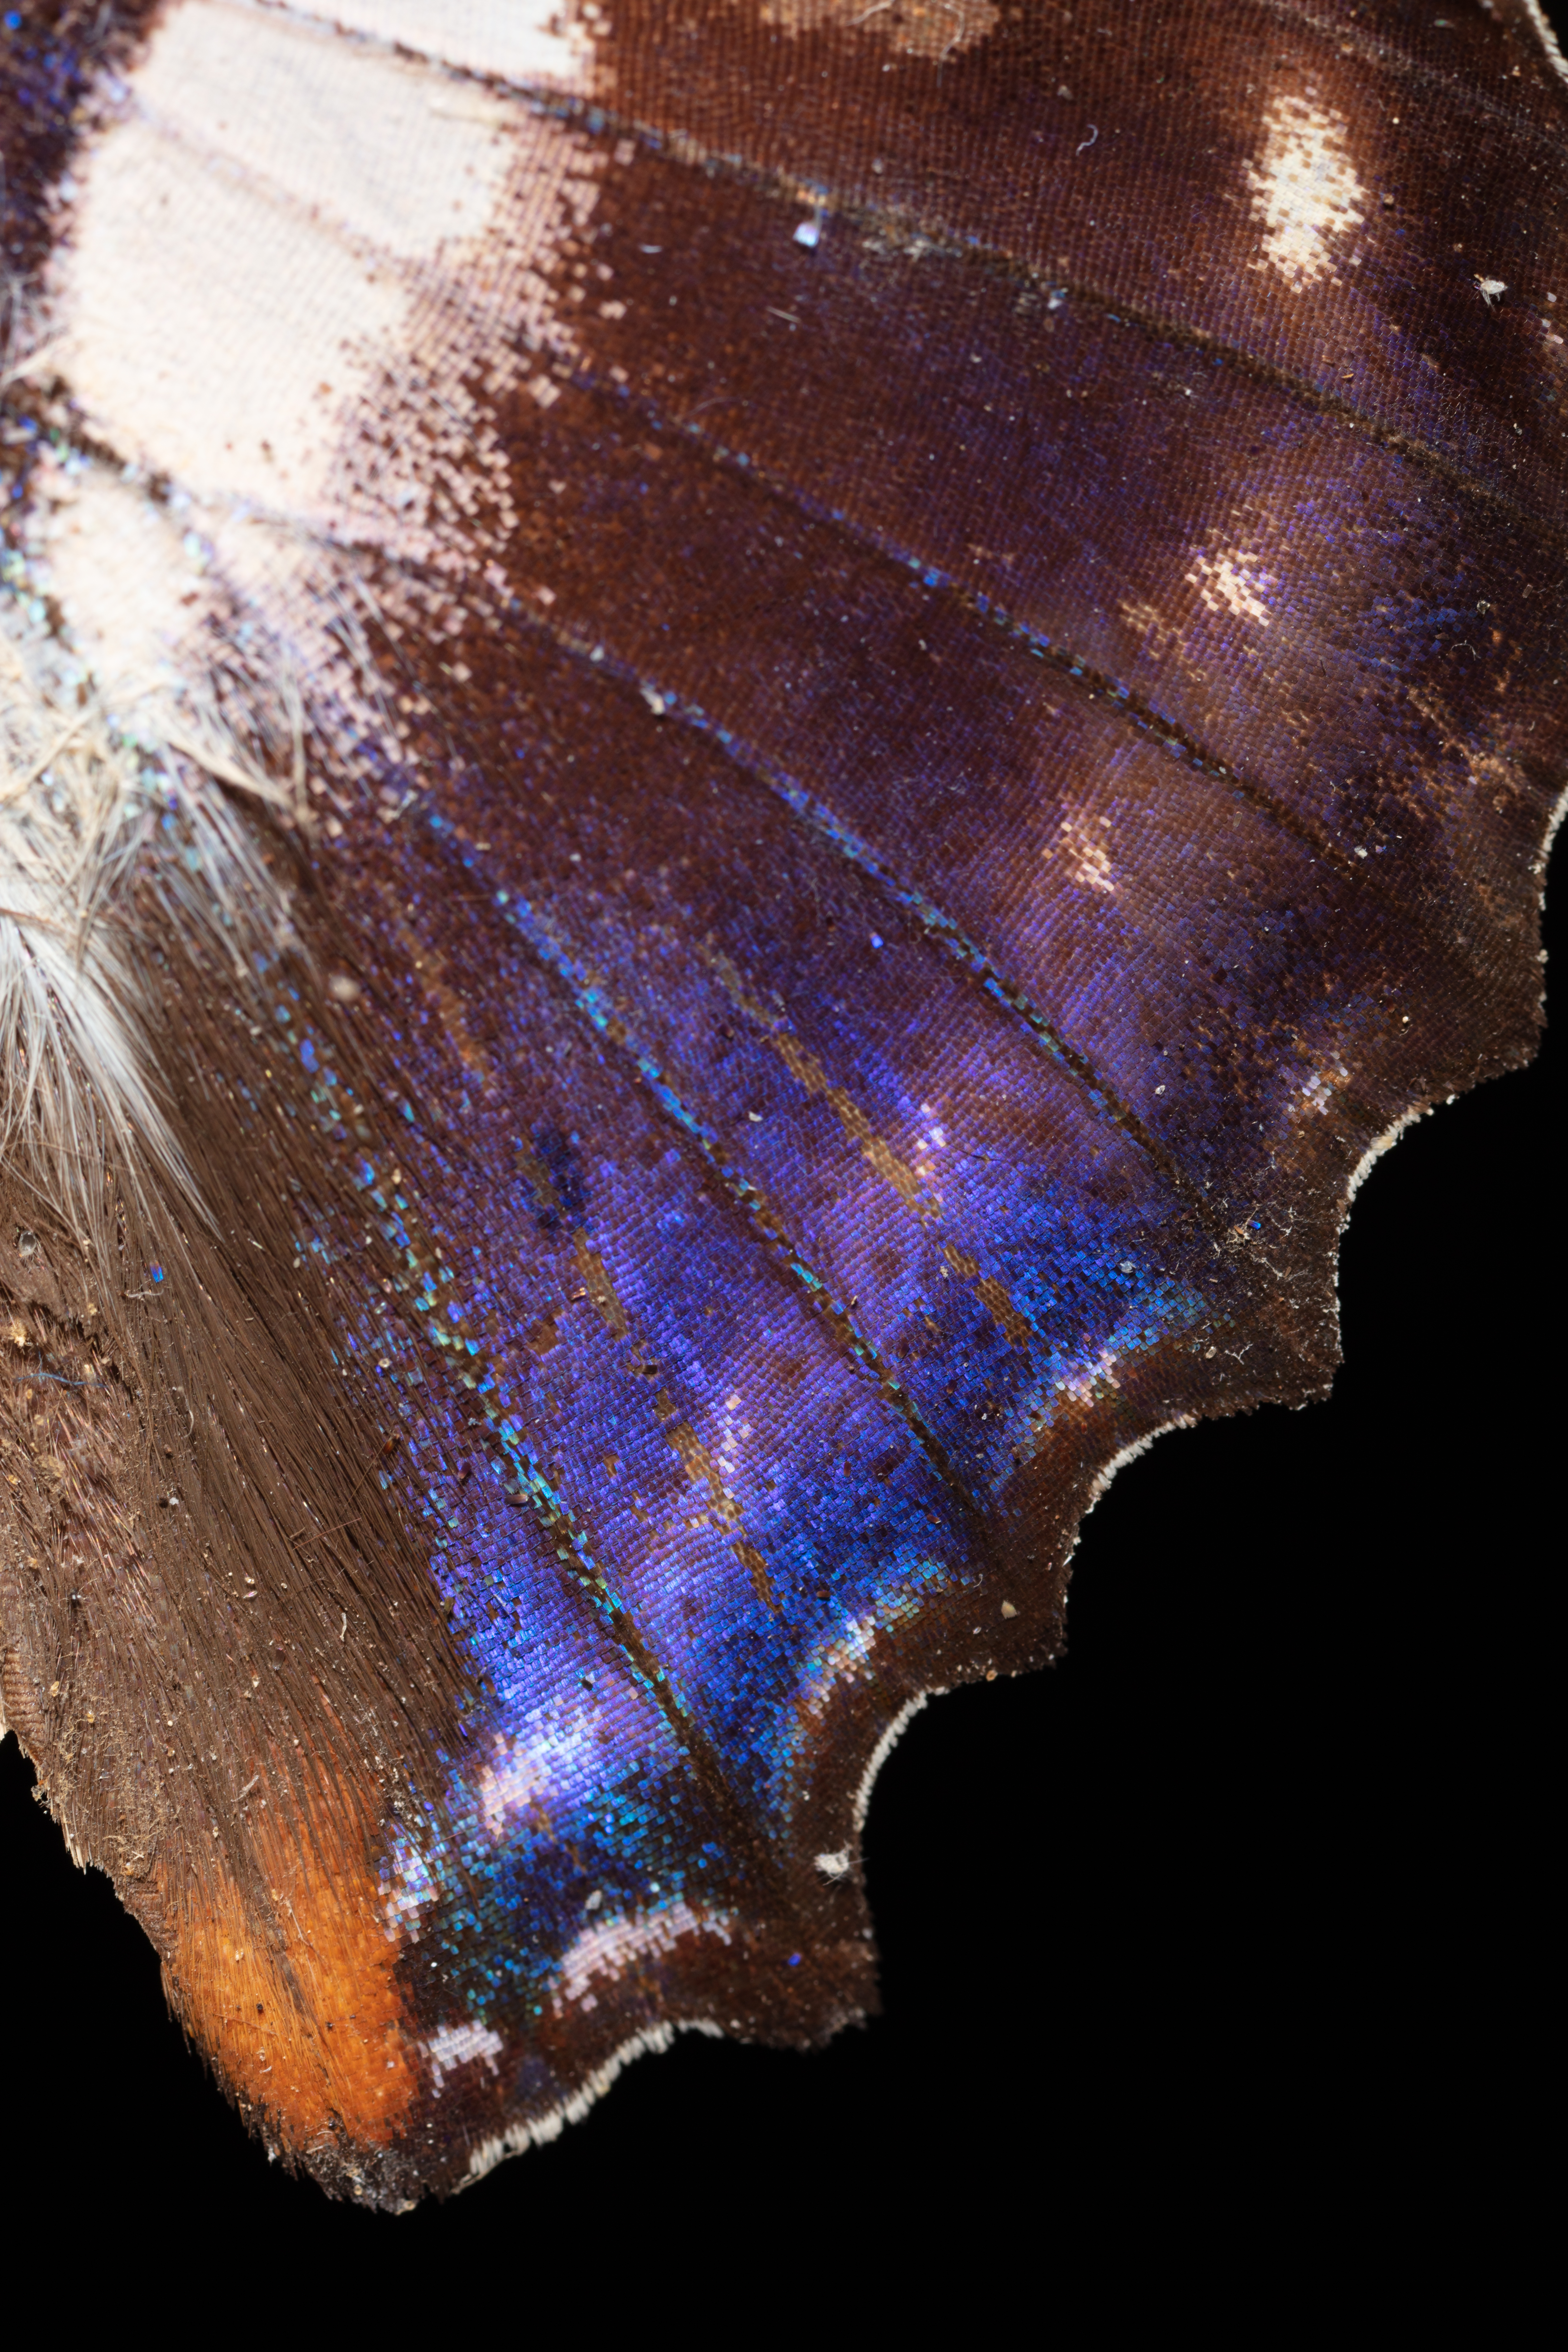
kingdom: Animalia
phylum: Arthropoda
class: Insecta
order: Lepidoptera
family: Nymphalidae
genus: Apatura
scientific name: Apatura Mimathyma ambica
